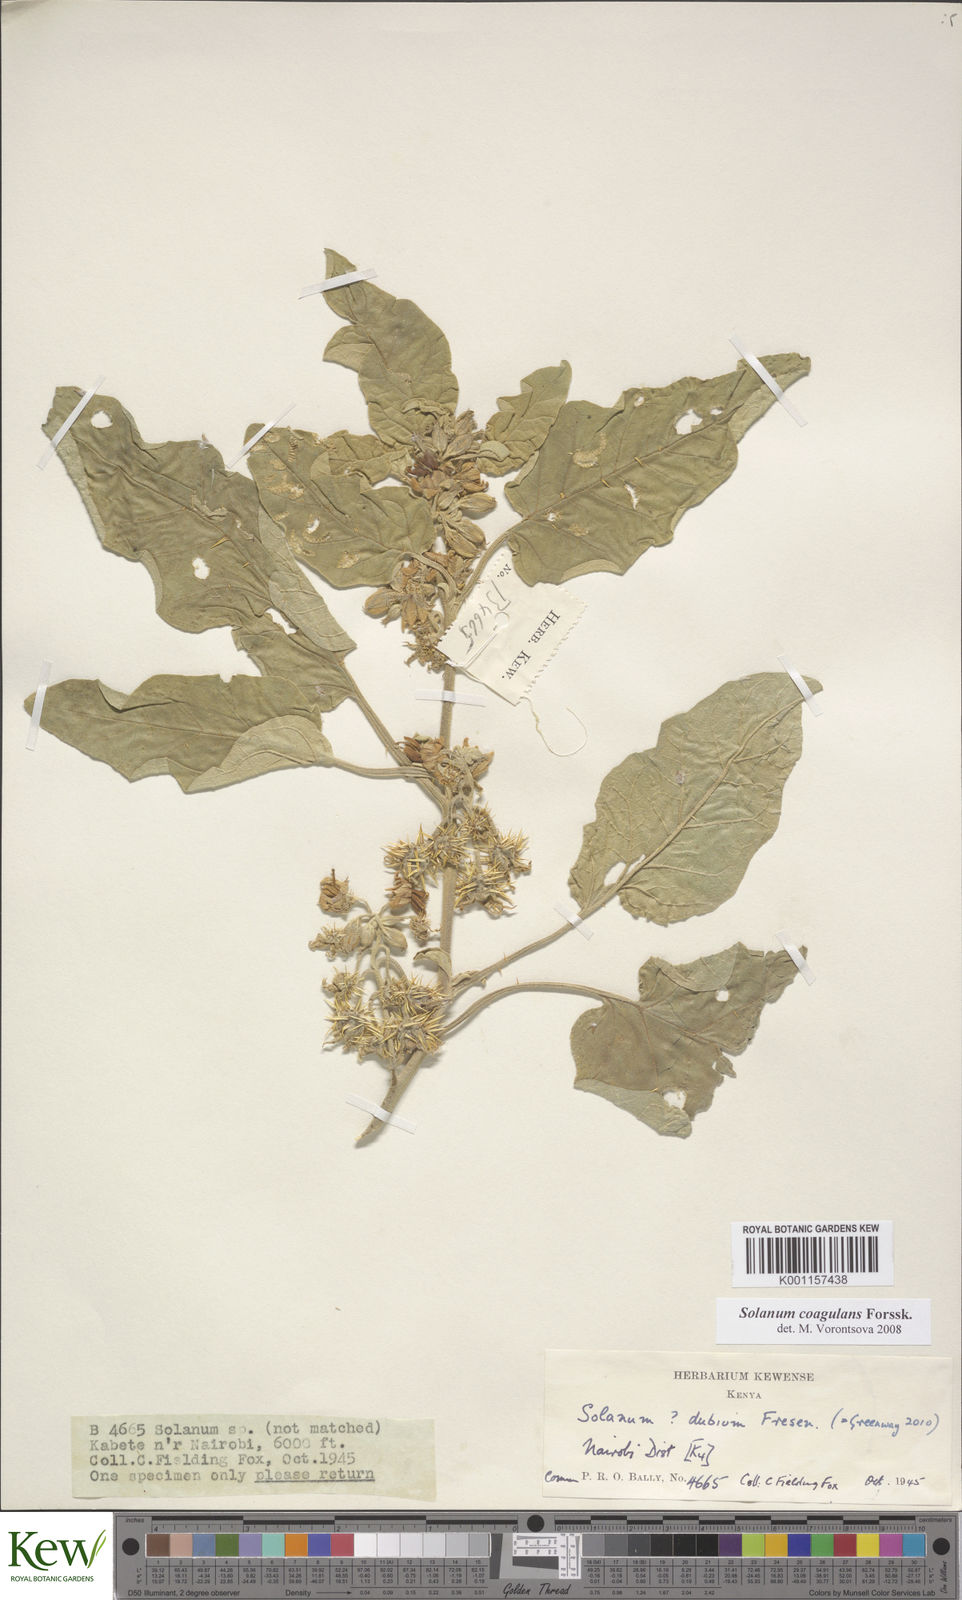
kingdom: Plantae
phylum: Tracheophyta
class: Magnoliopsida
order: Solanales
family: Solanaceae
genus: Solanum
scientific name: Solanum coagulans
